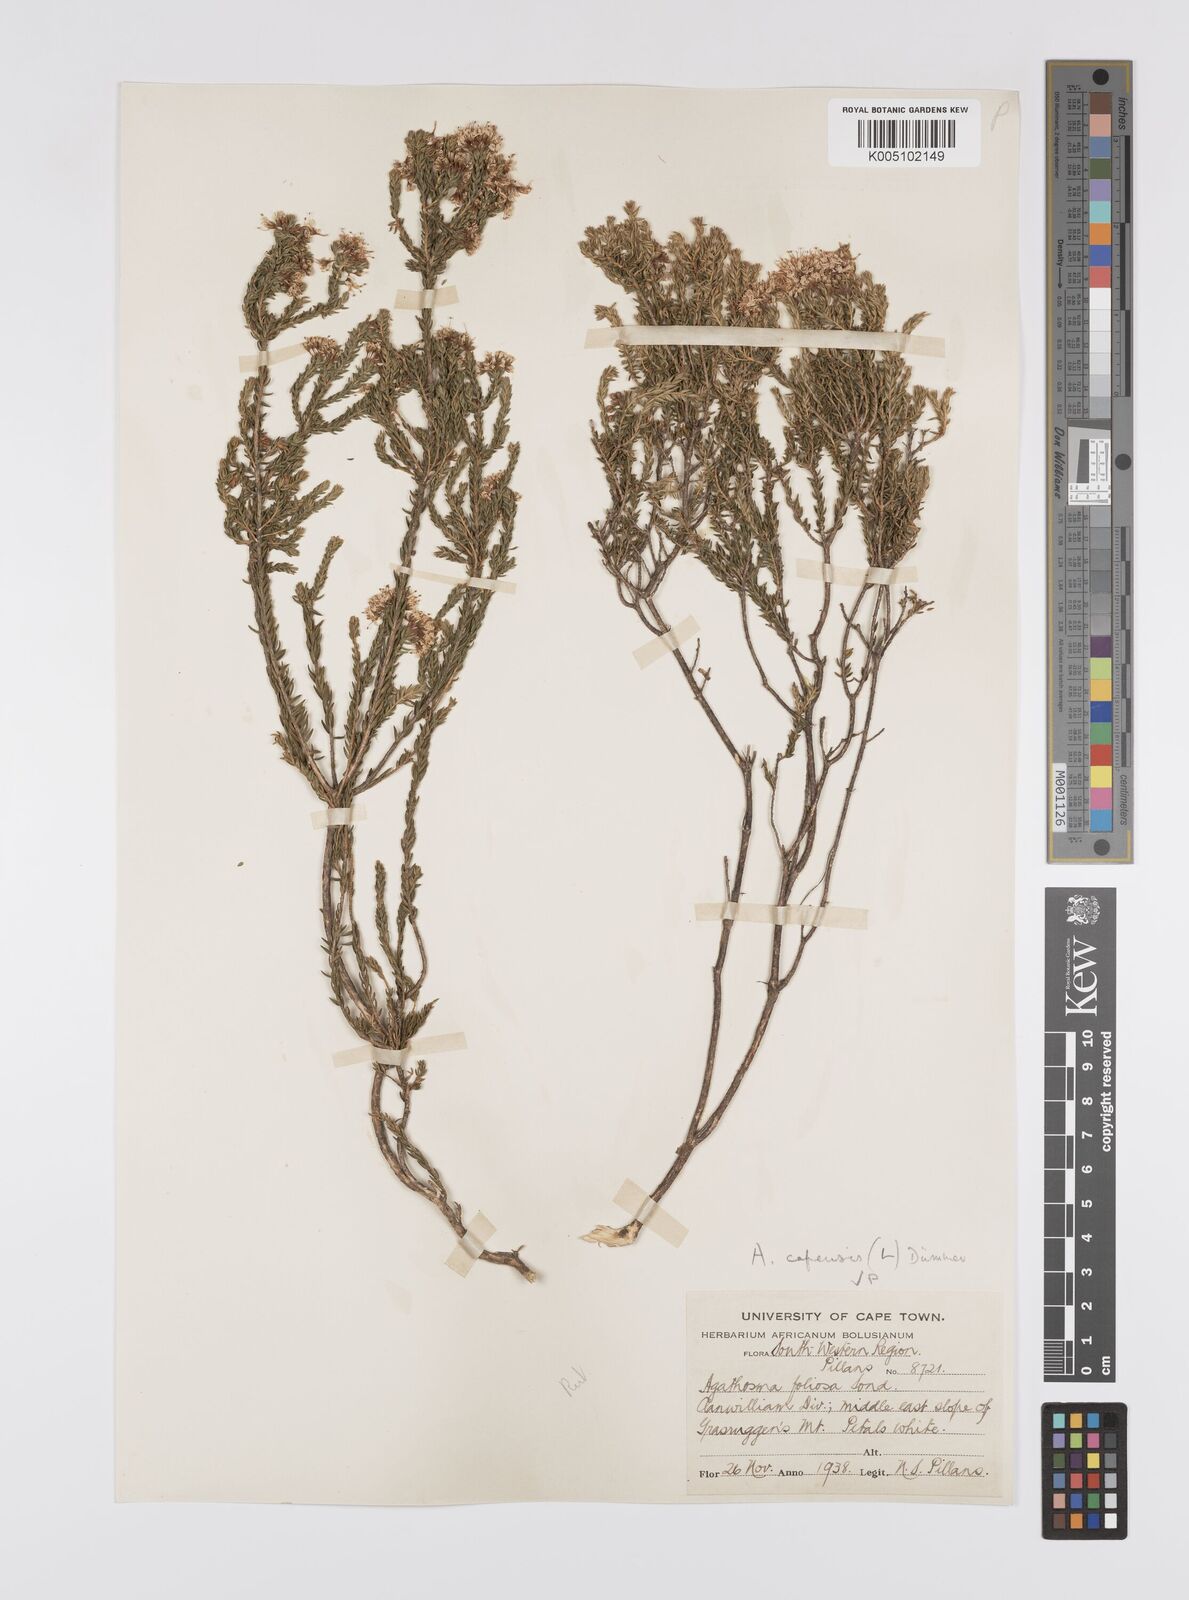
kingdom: Plantae
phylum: Tracheophyta
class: Magnoliopsida
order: Sapindales
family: Rutaceae
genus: Agathosma
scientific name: Agathosma capensis
